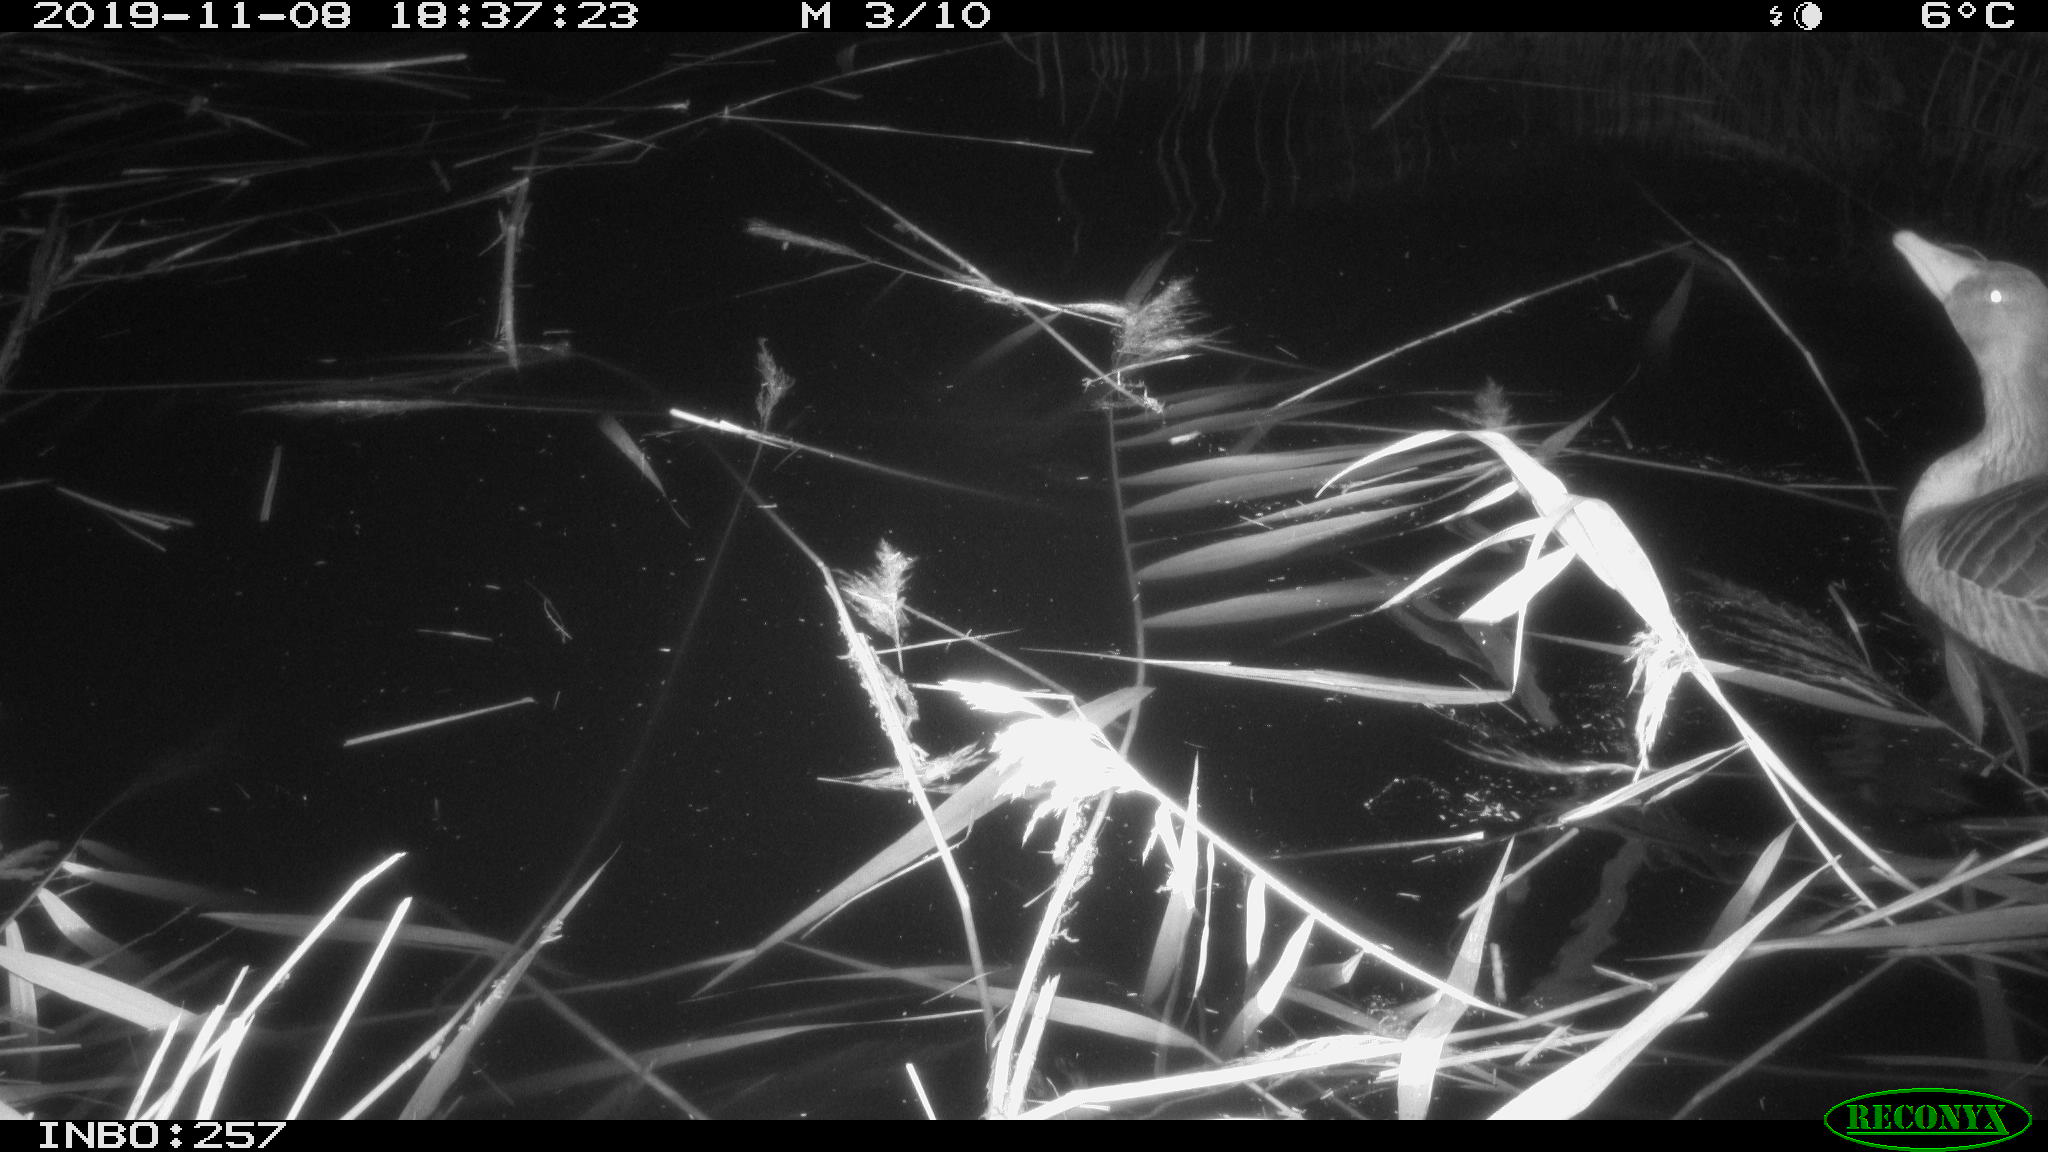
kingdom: Animalia
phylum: Chordata
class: Aves
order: Anseriformes
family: Anatidae
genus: Anser
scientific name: Anser anser
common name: Greylag goose
